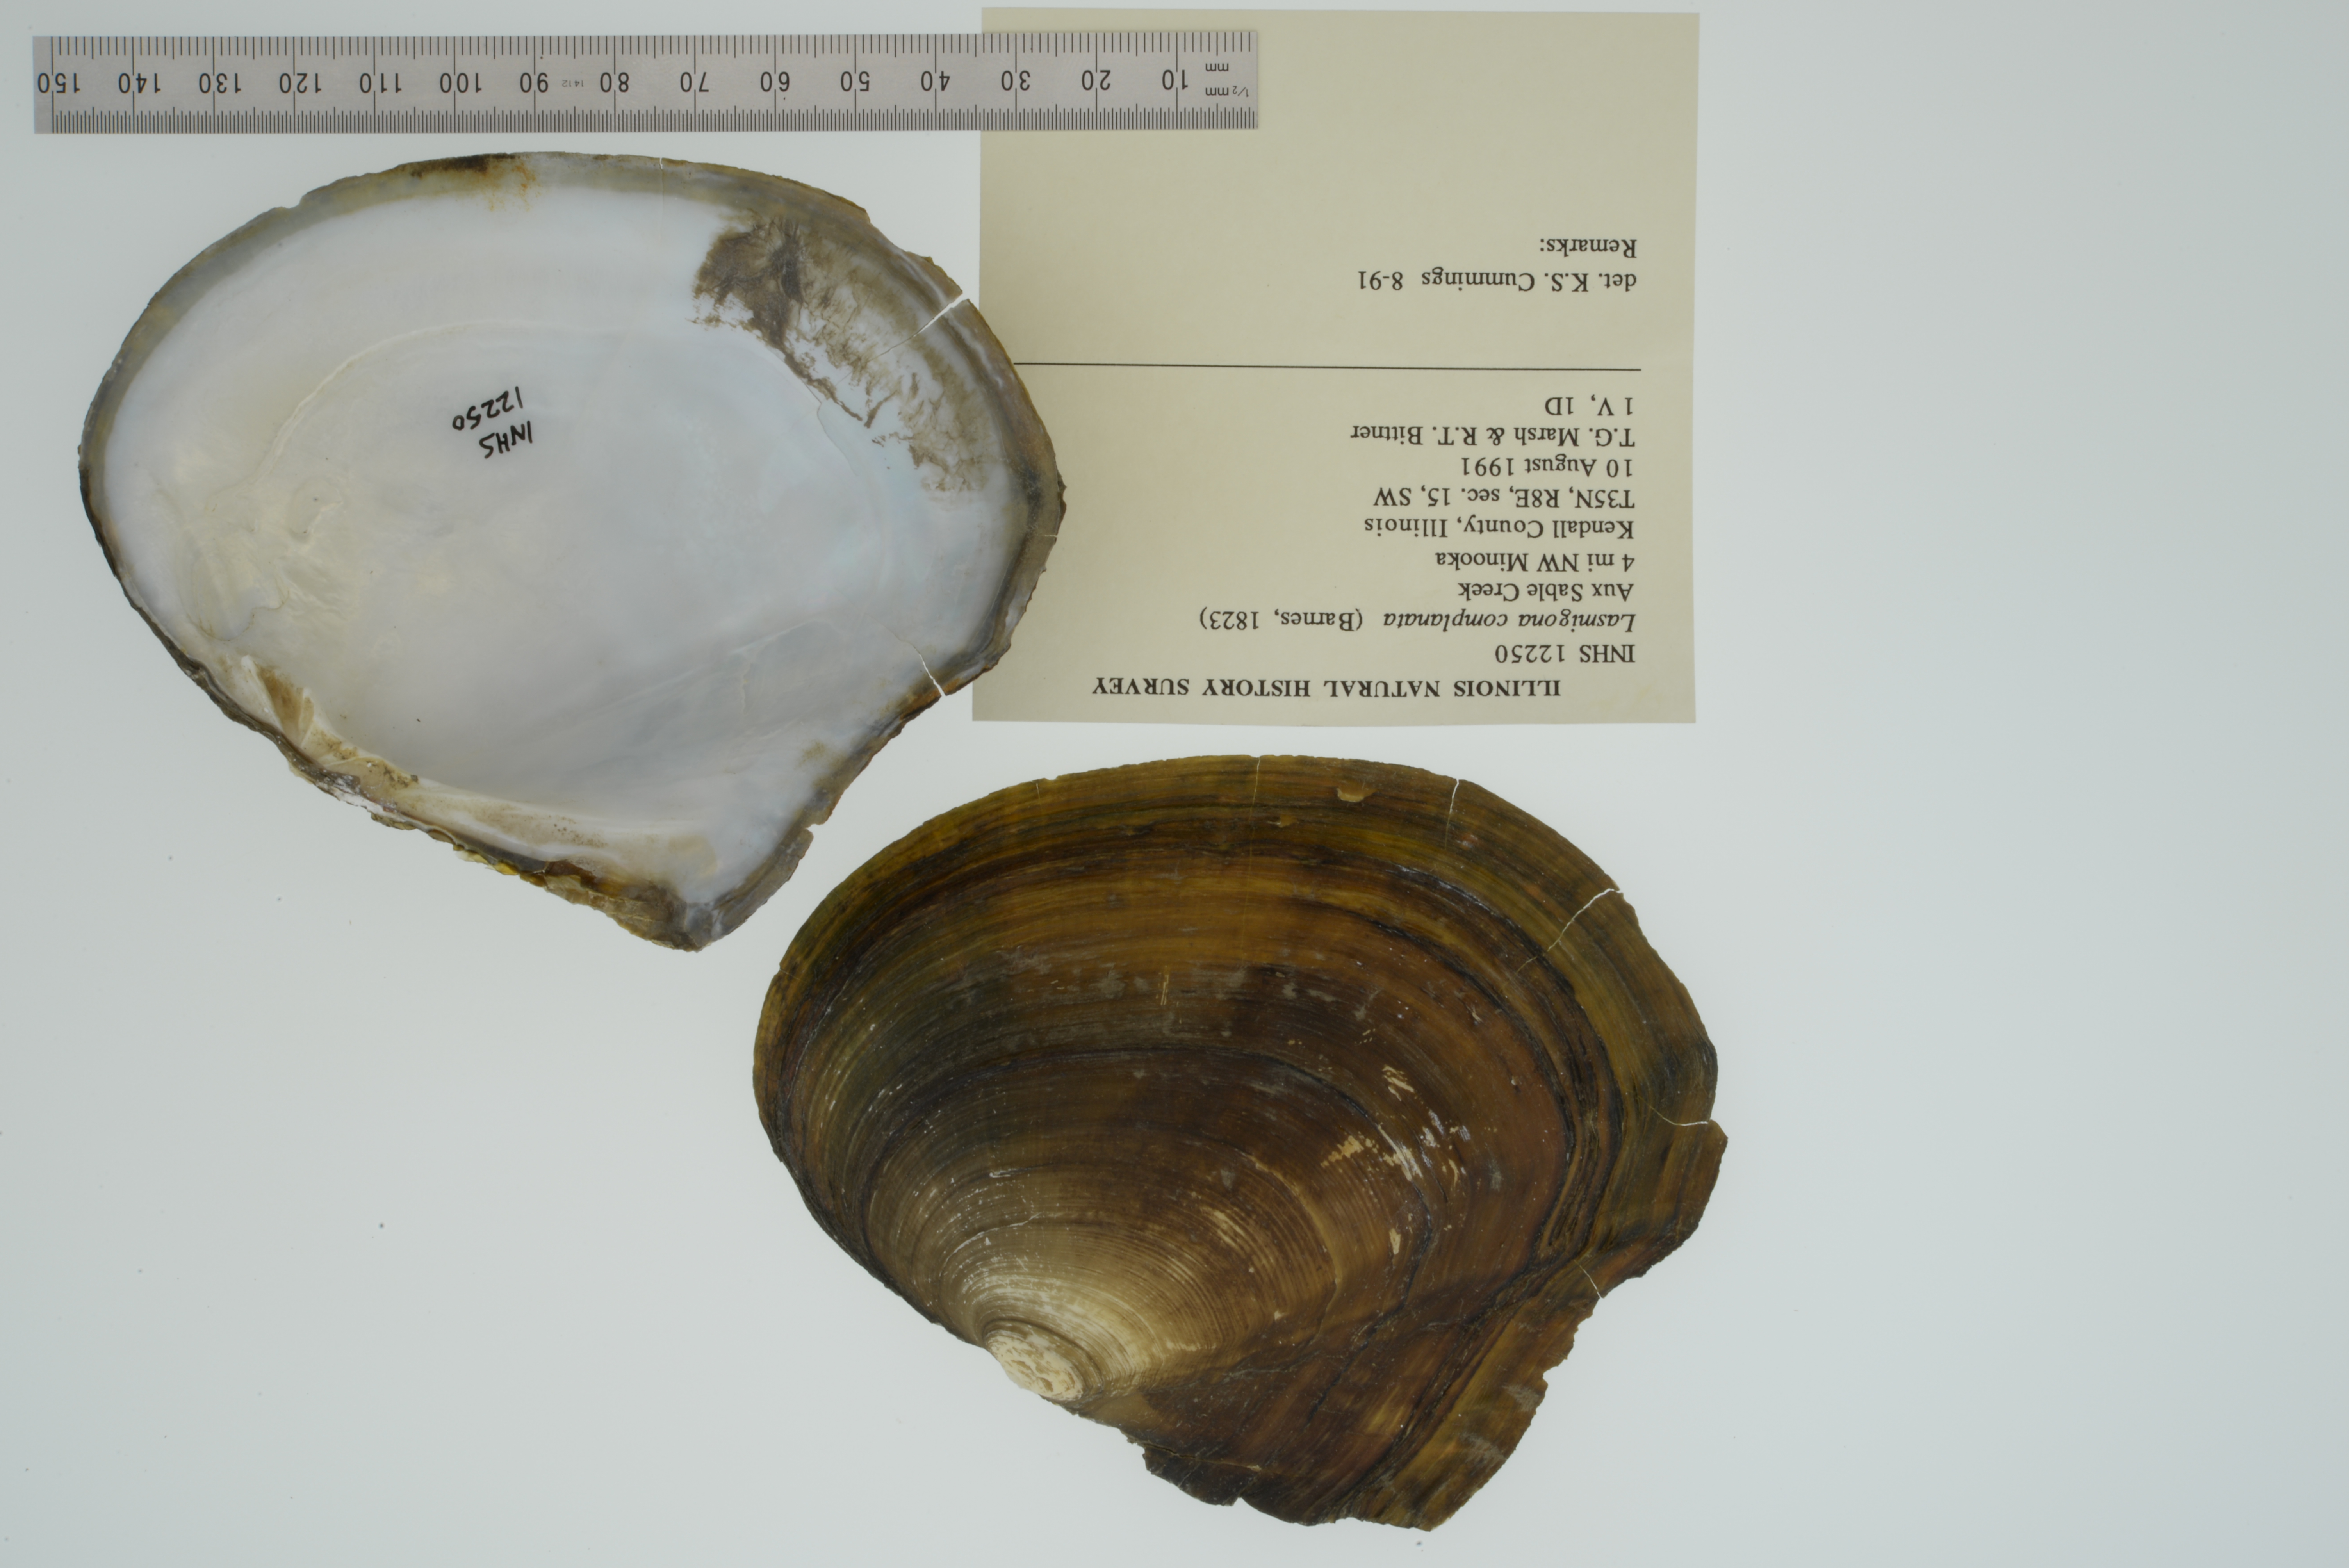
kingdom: Animalia
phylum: Mollusca
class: Bivalvia
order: Unionida
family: Unionidae
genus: Lasmigona
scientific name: Lasmigona complanata
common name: White heelsplitter
